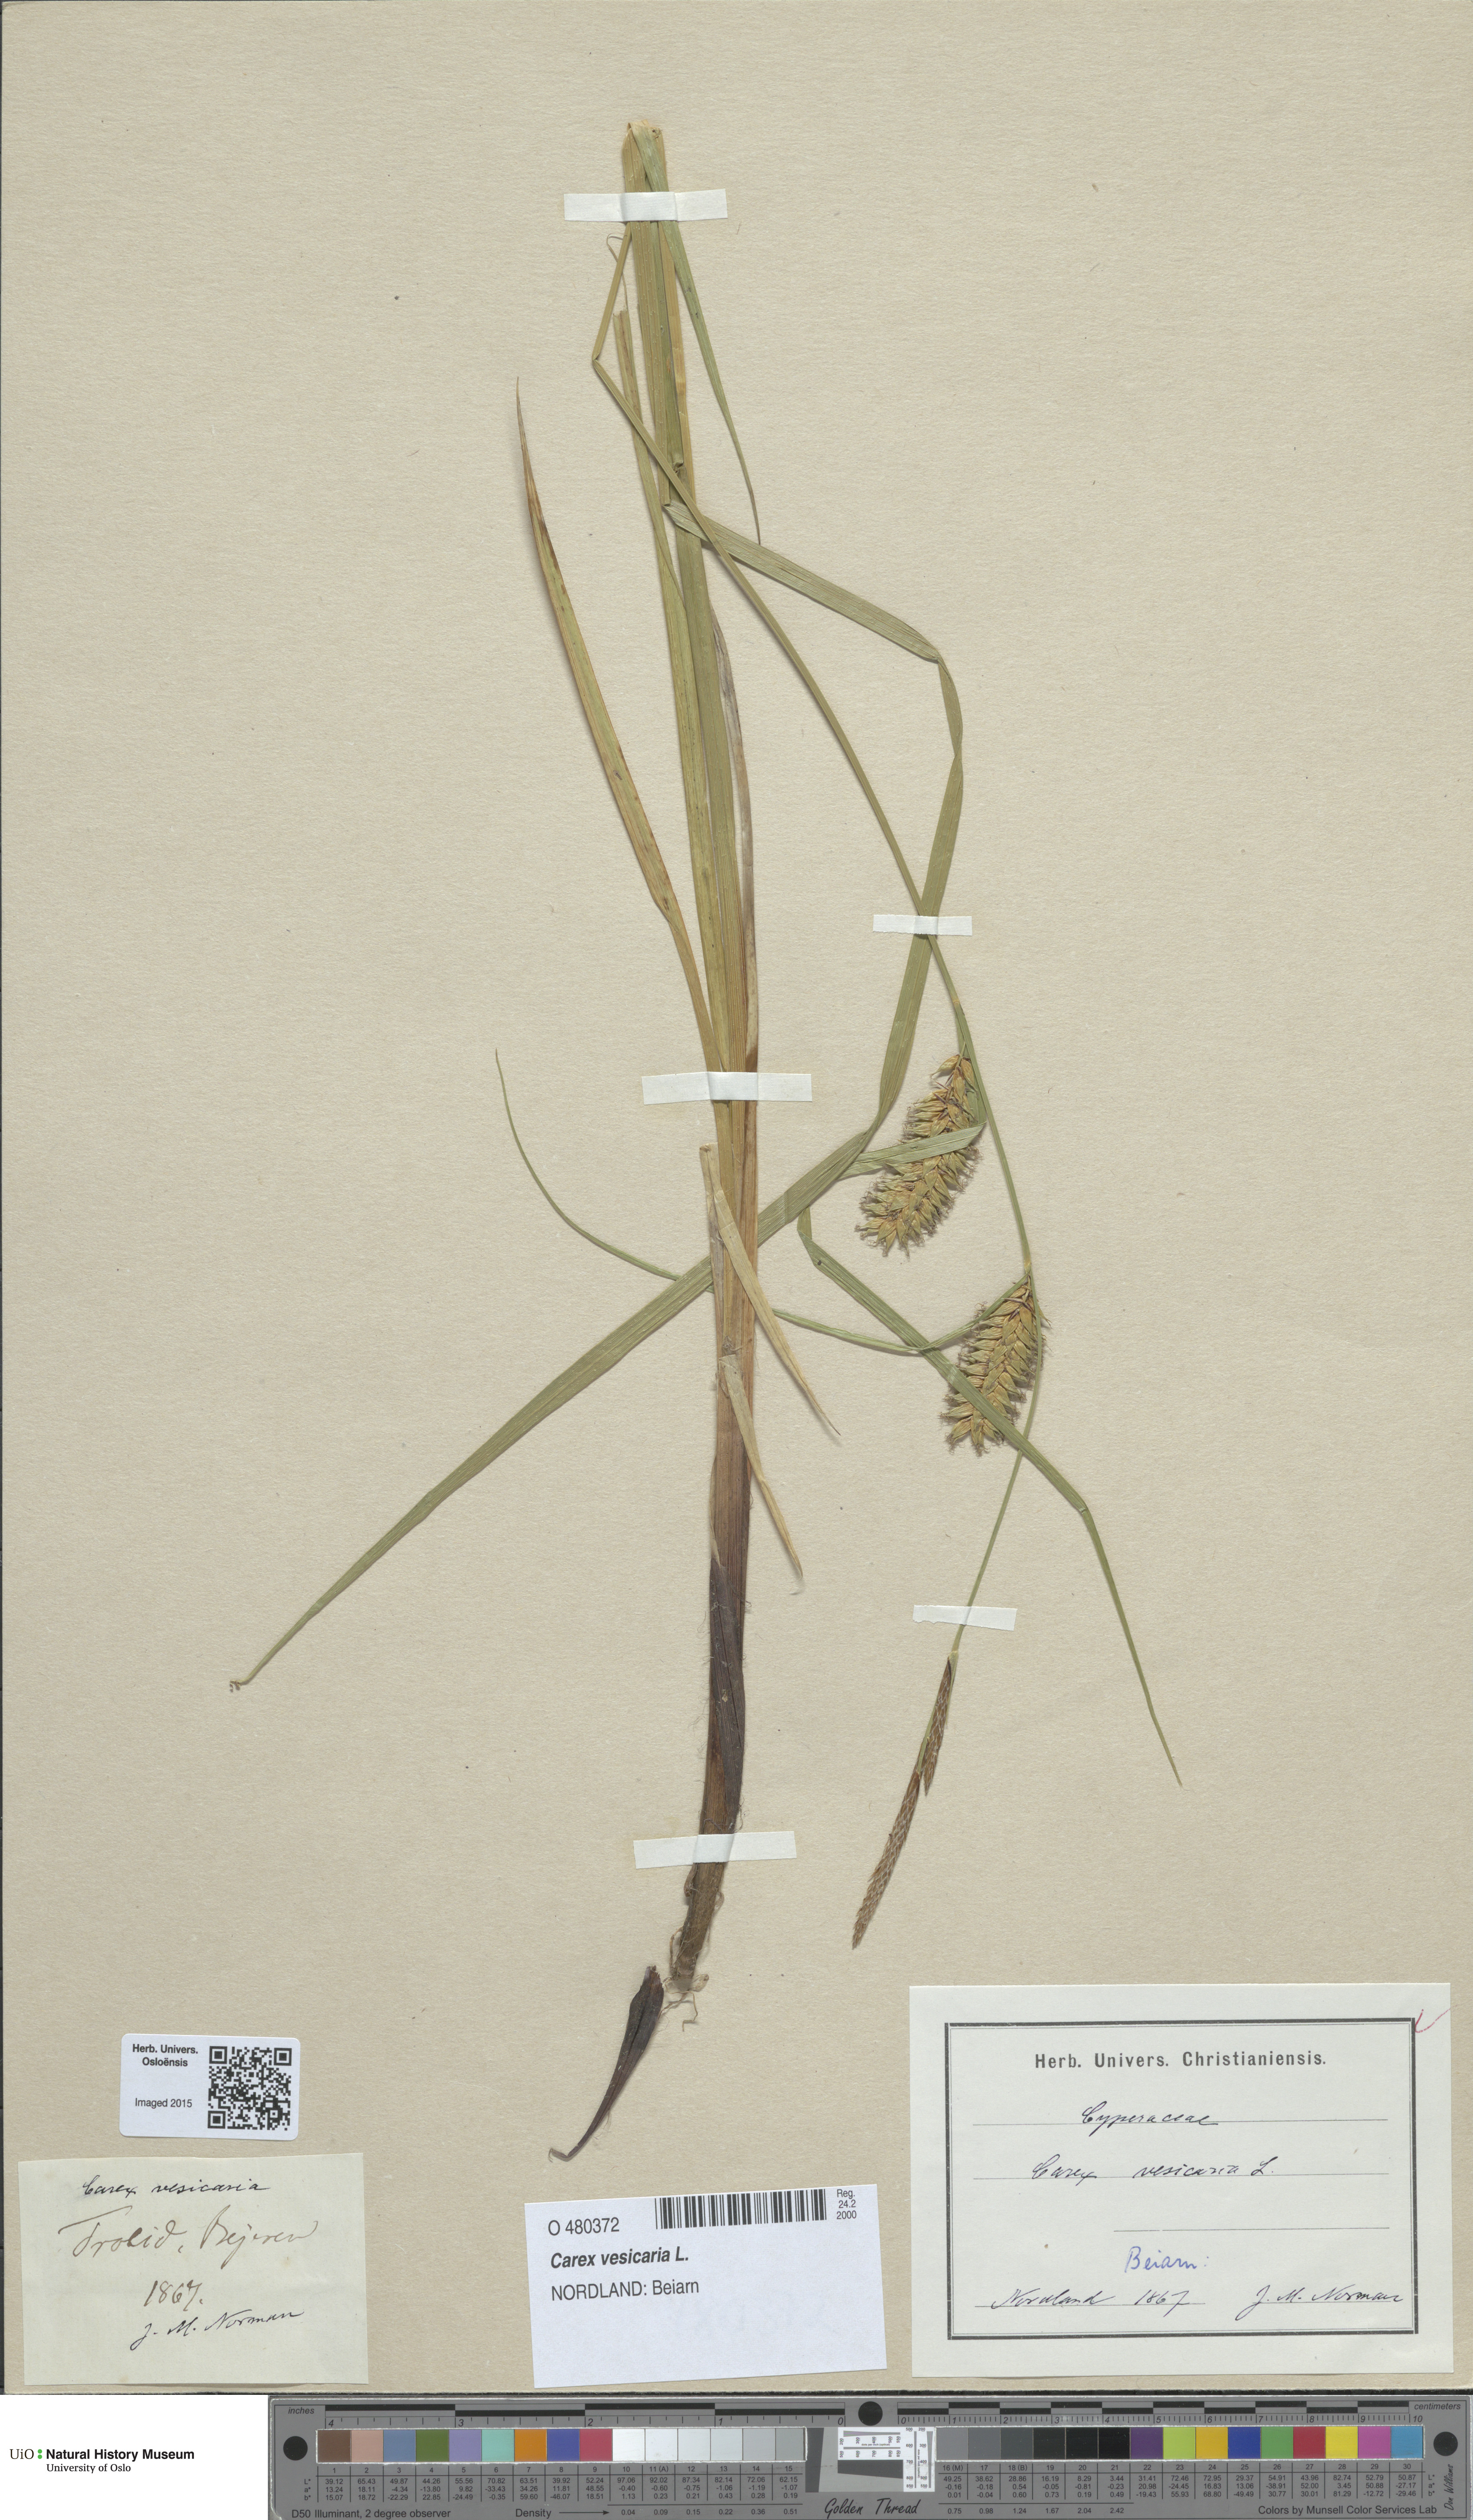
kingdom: Plantae
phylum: Tracheophyta
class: Liliopsida
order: Poales
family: Cyperaceae
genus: Carex
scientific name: Carex vesicaria
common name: Bladder-sedge
